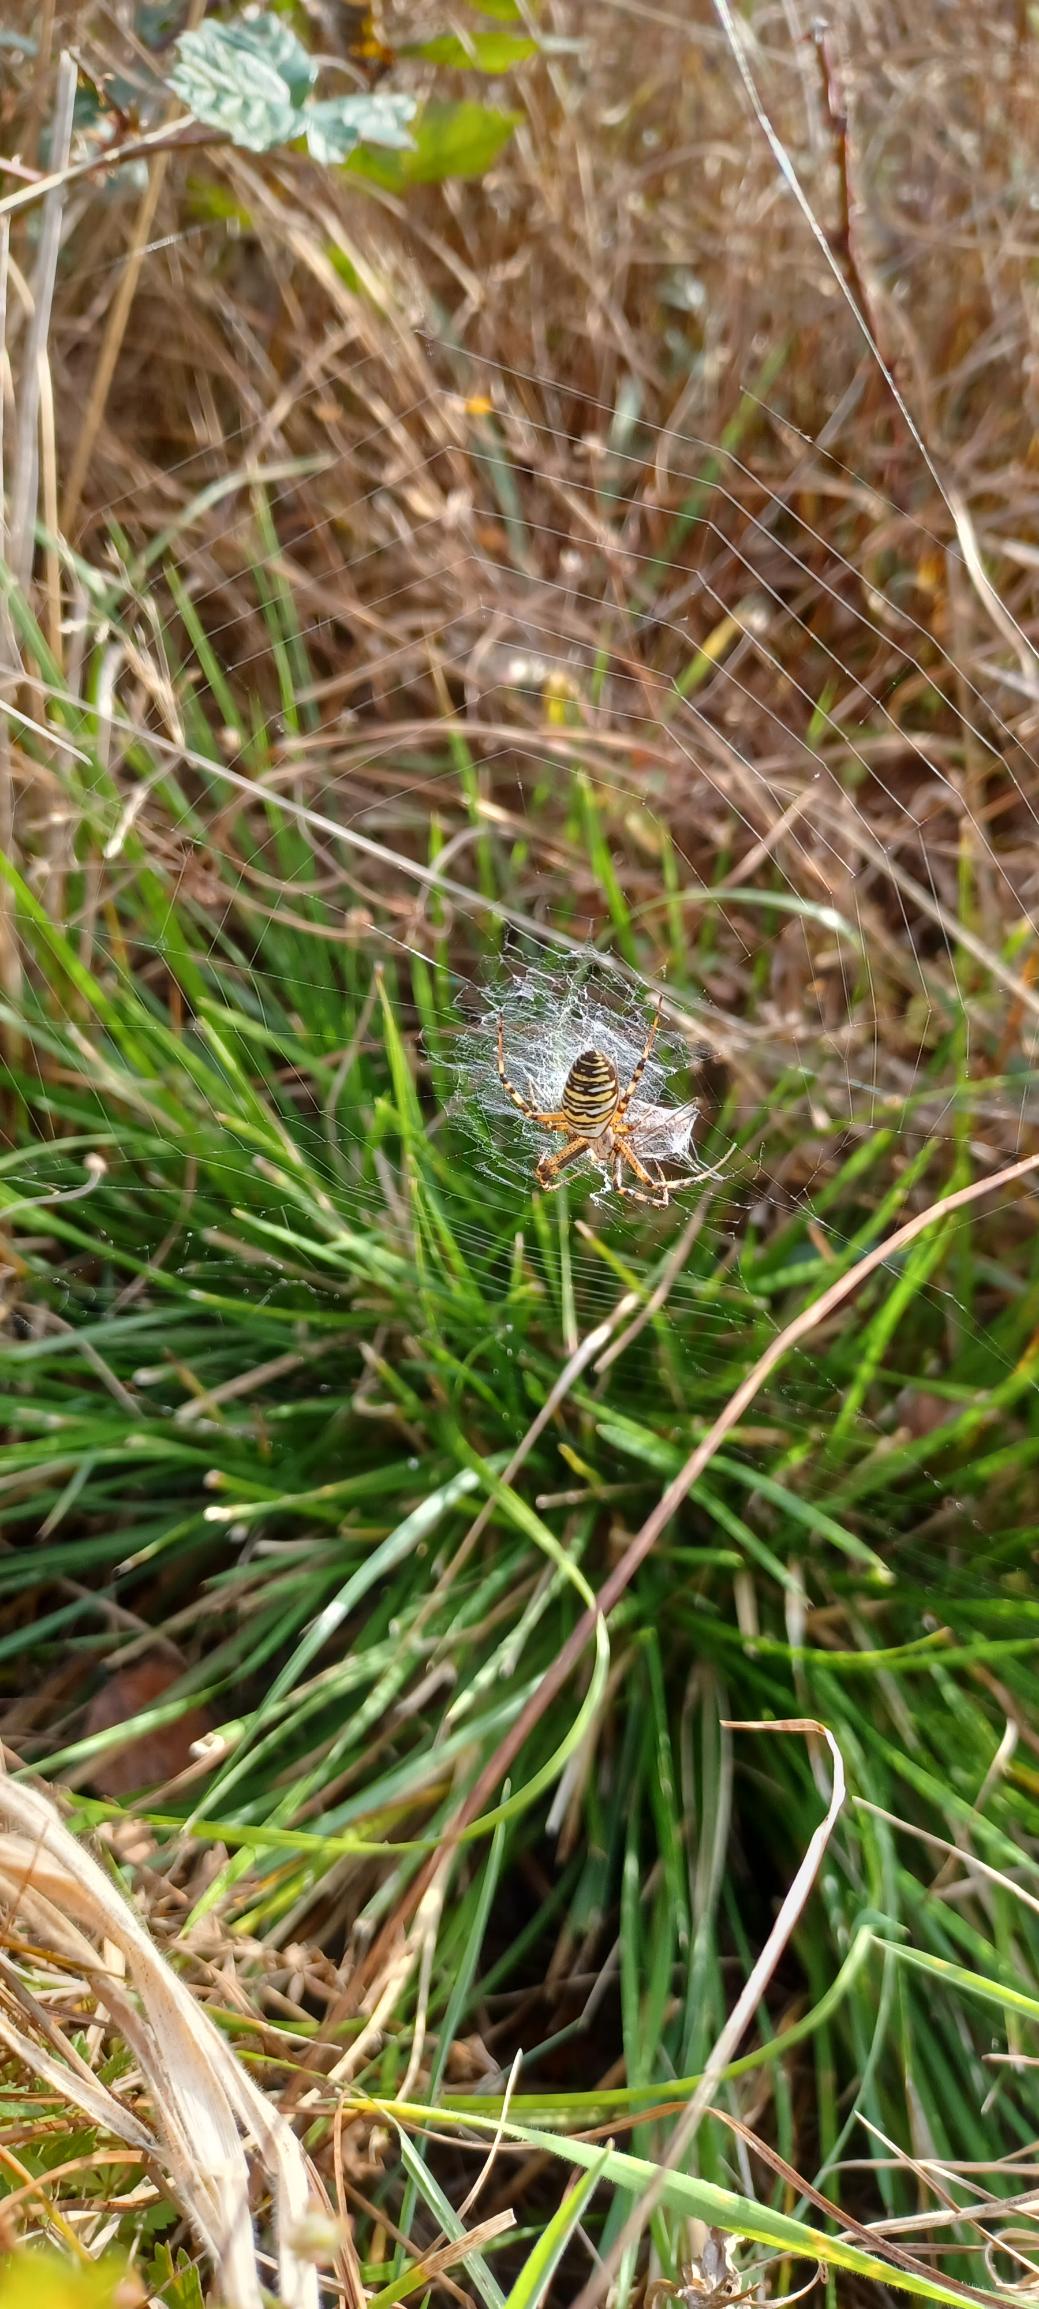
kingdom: Animalia
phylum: Arthropoda
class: Arachnida
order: Araneae
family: Araneidae
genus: Argiope
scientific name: Argiope bruennichi
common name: Hvepseedderkop
